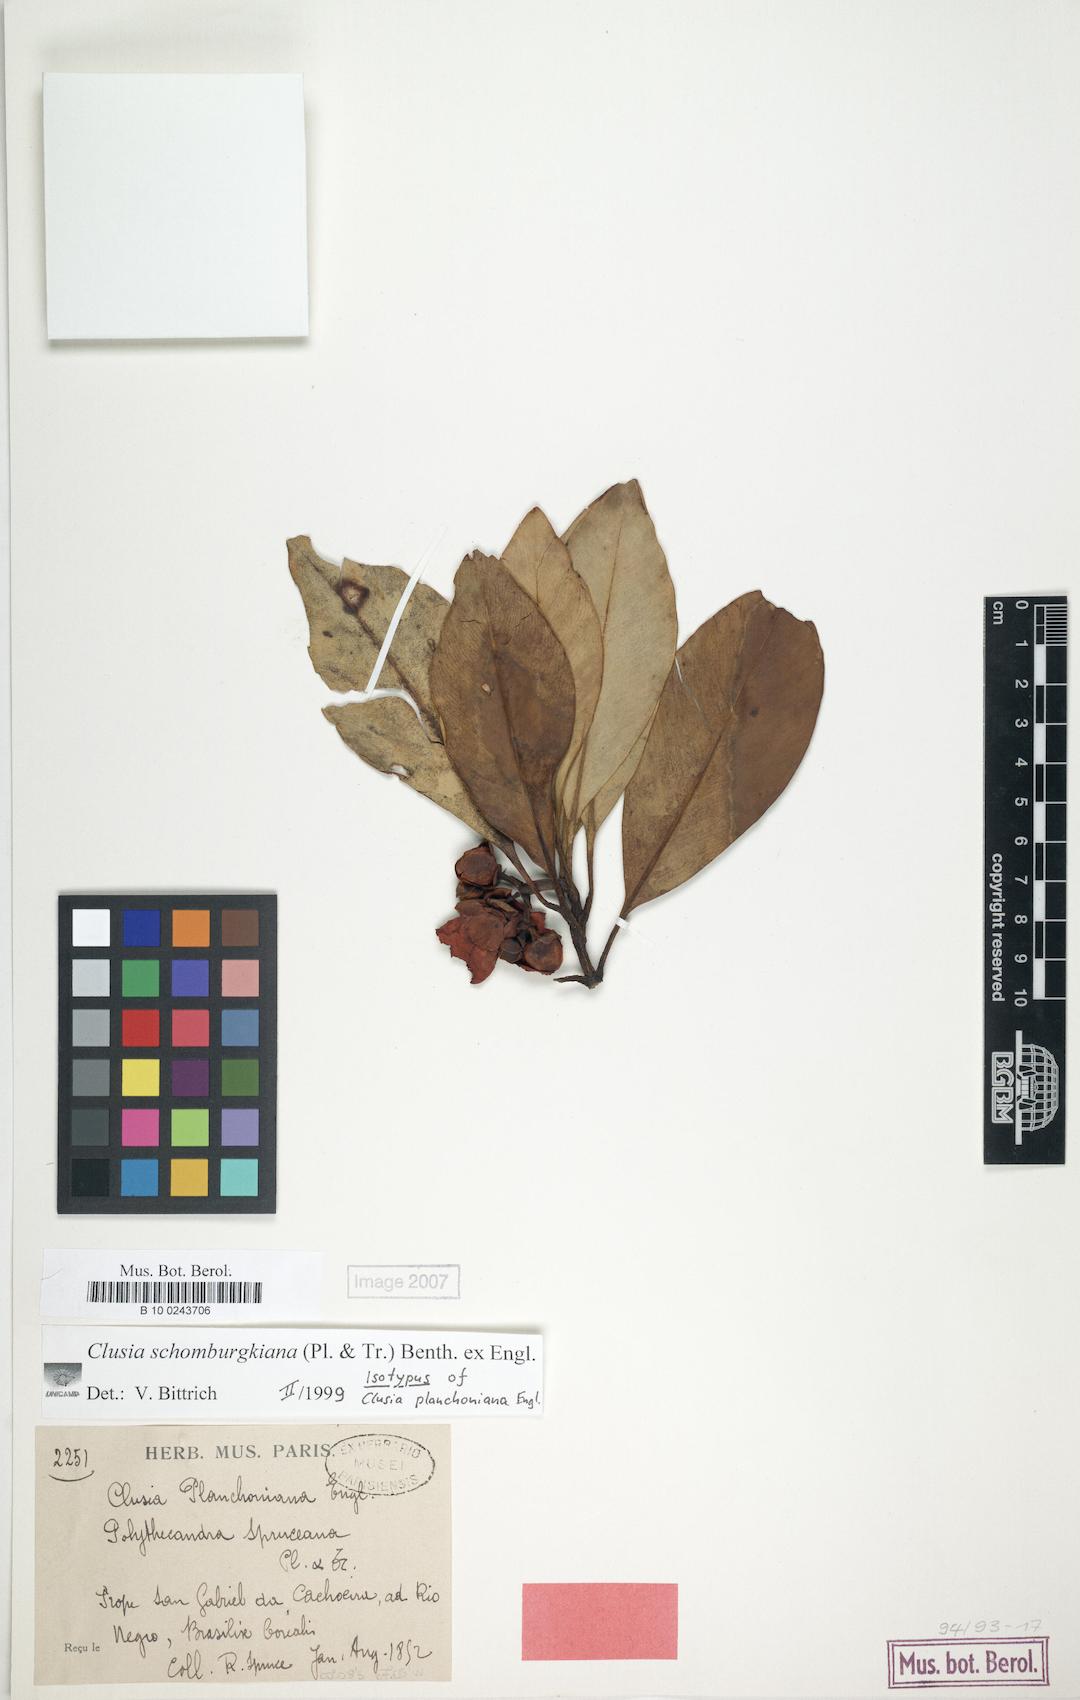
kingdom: Plantae
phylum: Tracheophyta
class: Magnoliopsida
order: Malpighiales
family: Clusiaceae
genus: Clusia
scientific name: Clusia schomburgkiana
